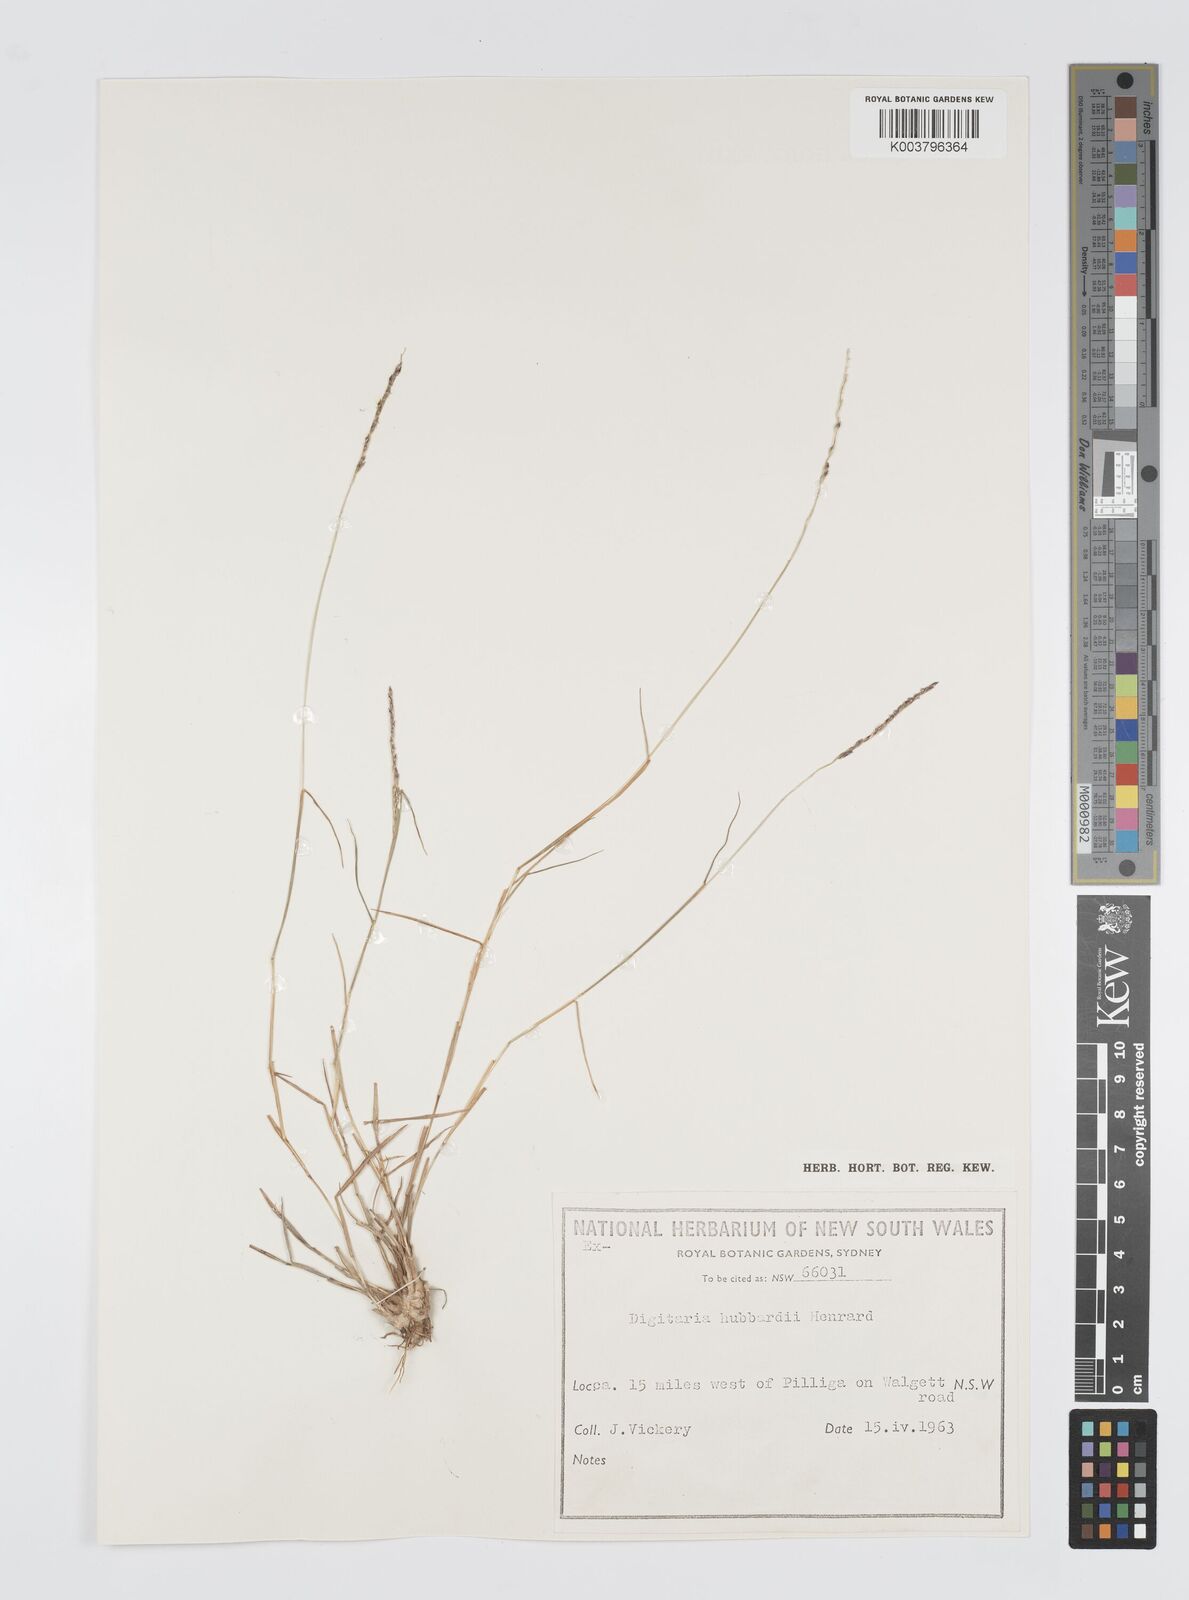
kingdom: Plantae
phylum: Tracheophyta
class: Liliopsida
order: Poales
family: Poaceae
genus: Digitaria
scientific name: Digitaria hubbardii
